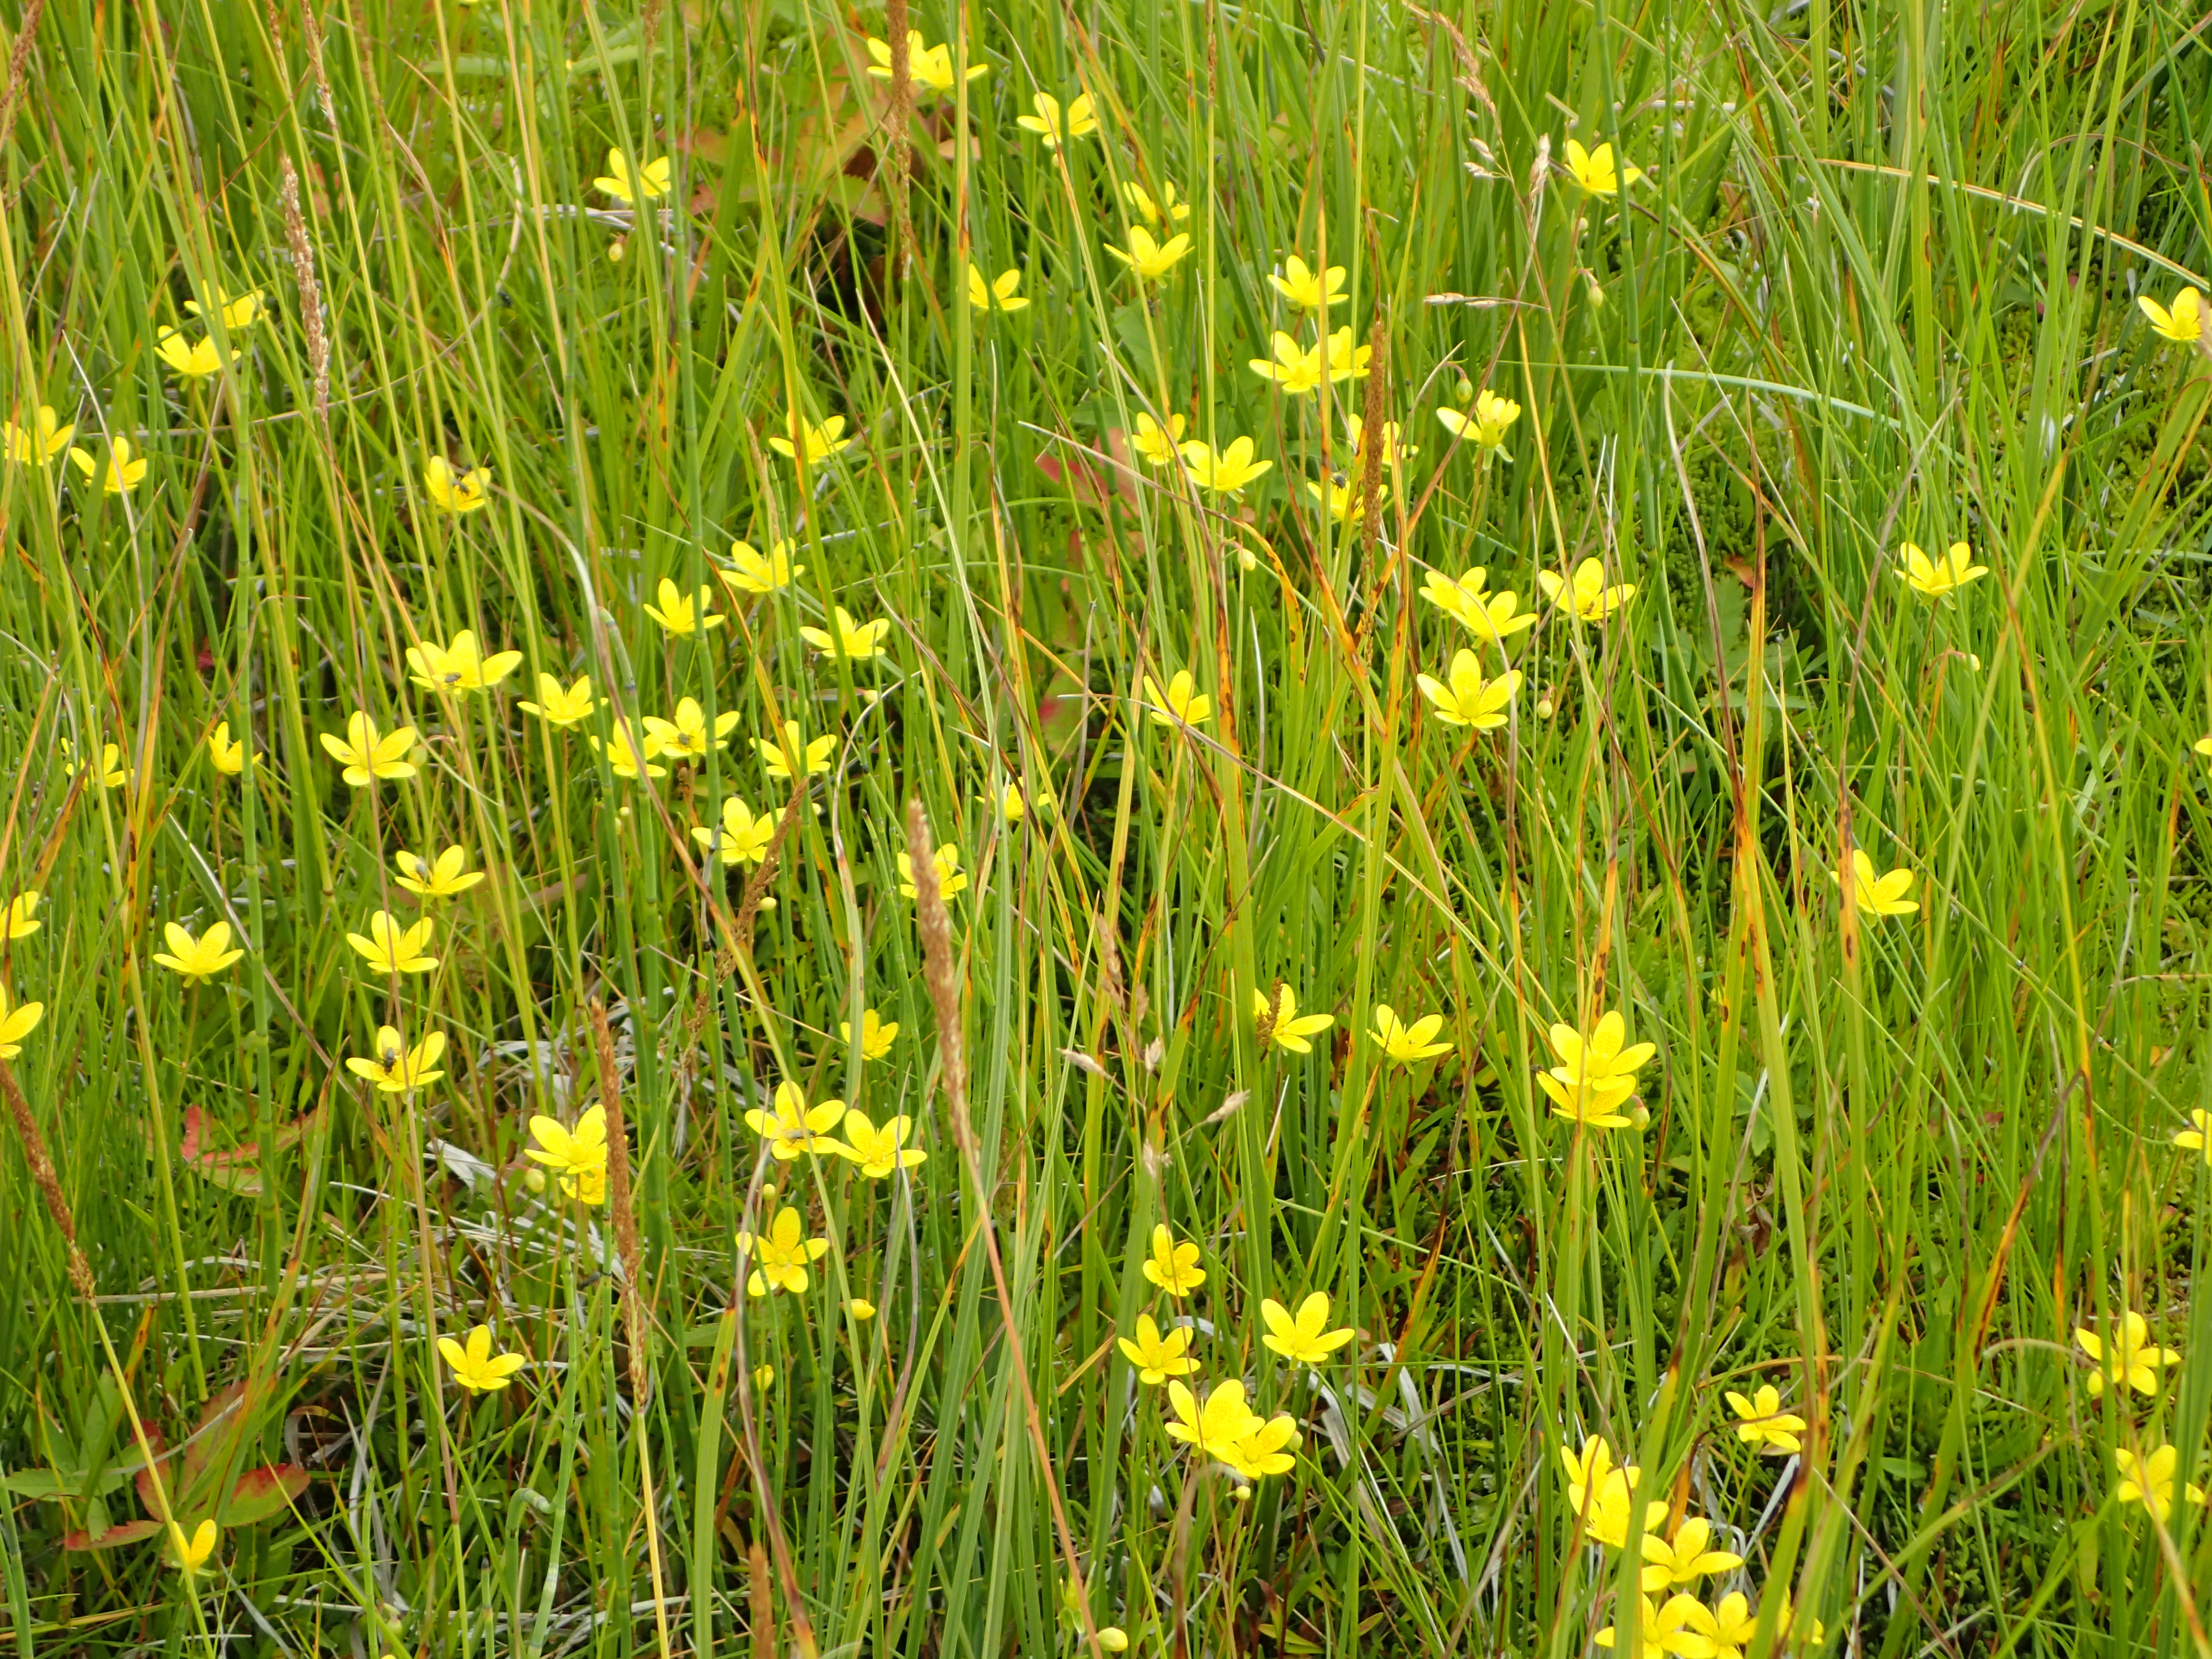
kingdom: Plantae
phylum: Tracheophyta
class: Magnoliopsida
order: Saxifragales
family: Saxifragaceae
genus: Saxifraga
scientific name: Saxifraga hirculus
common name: Yellow marsh saxifrage
